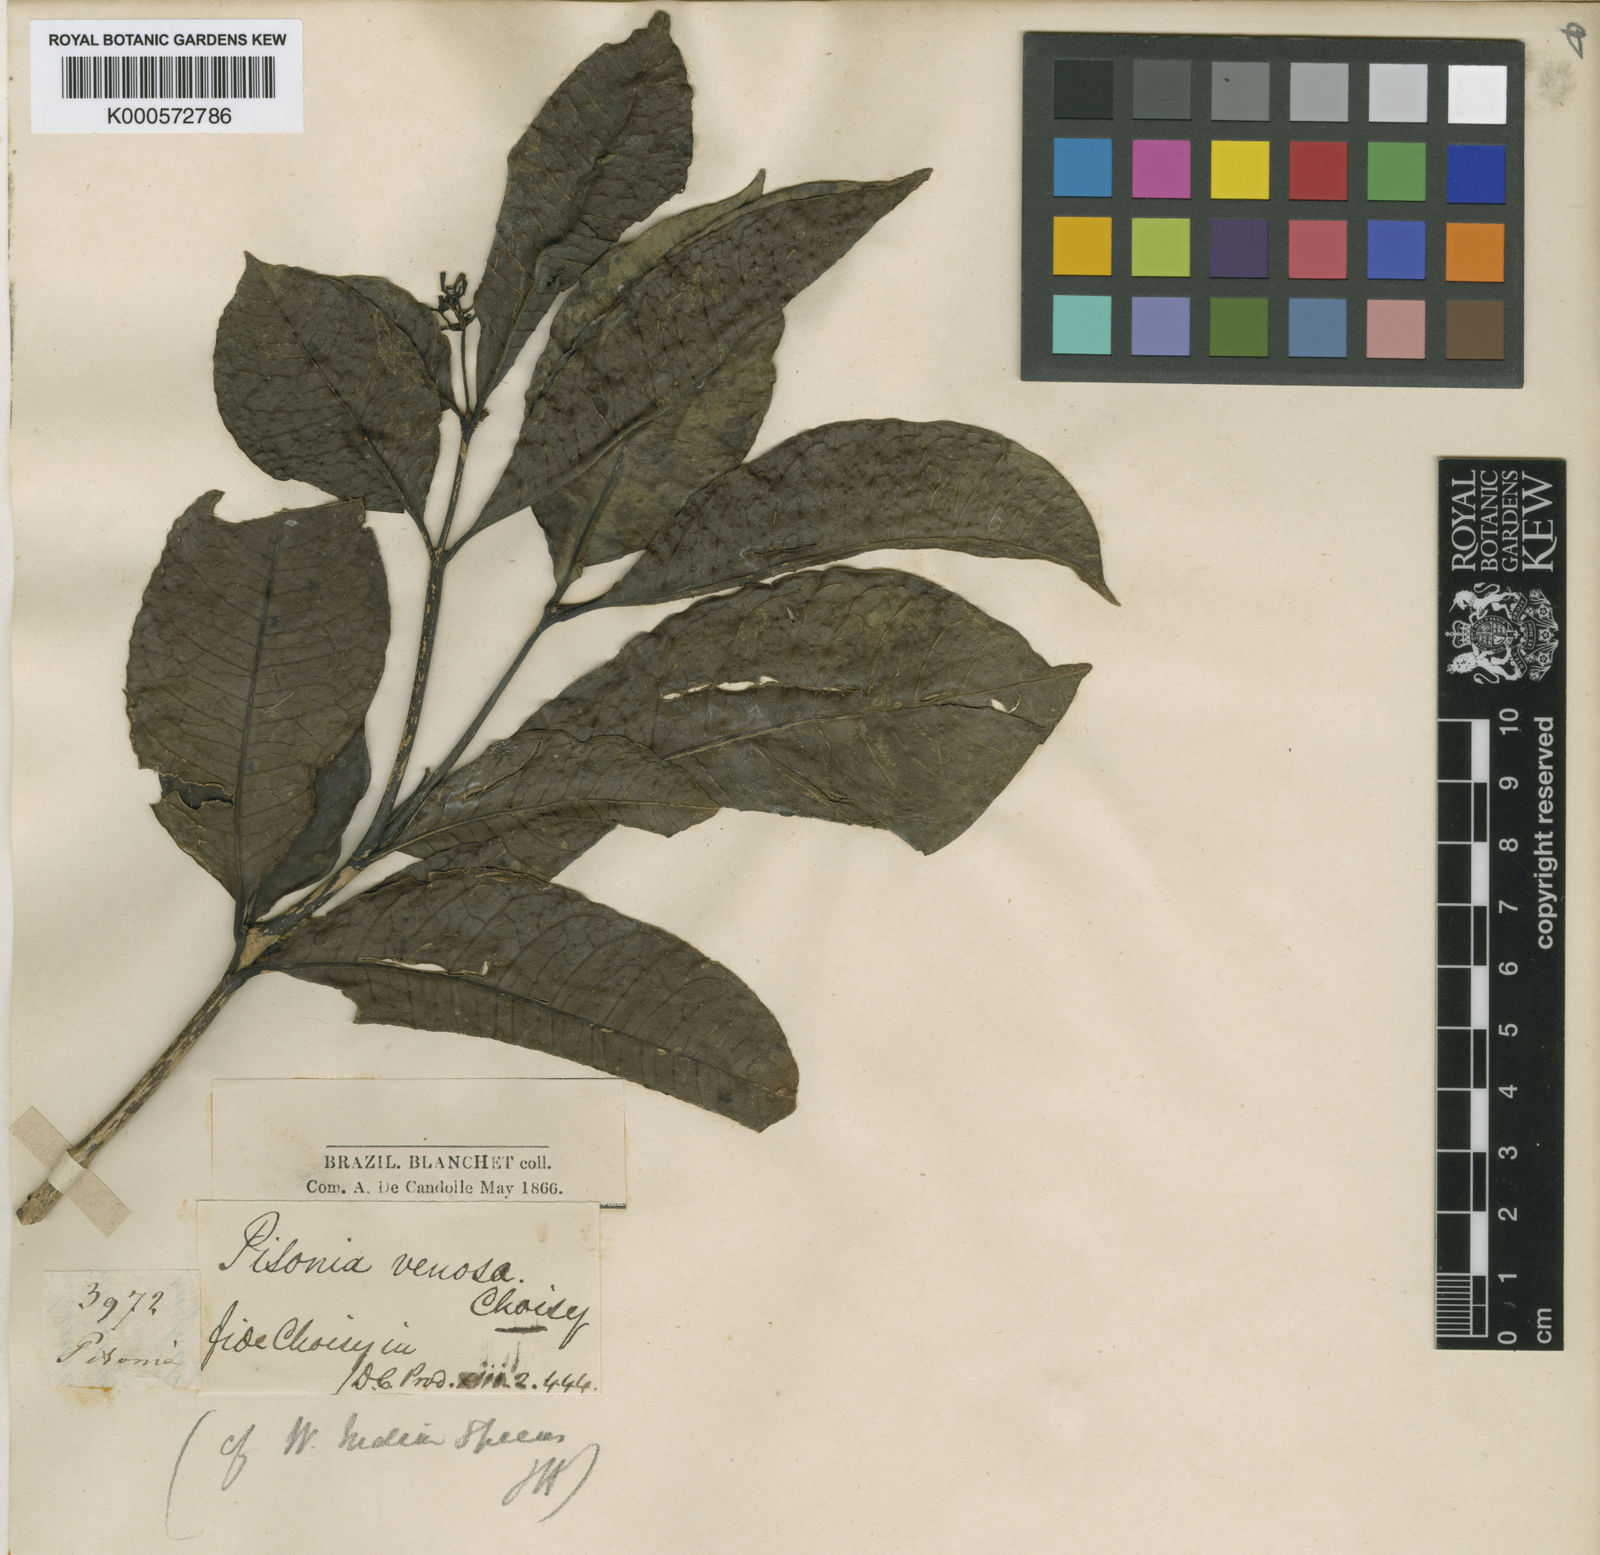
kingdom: Plantae
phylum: Tracheophyta
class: Magnoliopsida
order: Caryophyllales
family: Nyctaginaceae
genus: Guapira
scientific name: Guapira venosa
